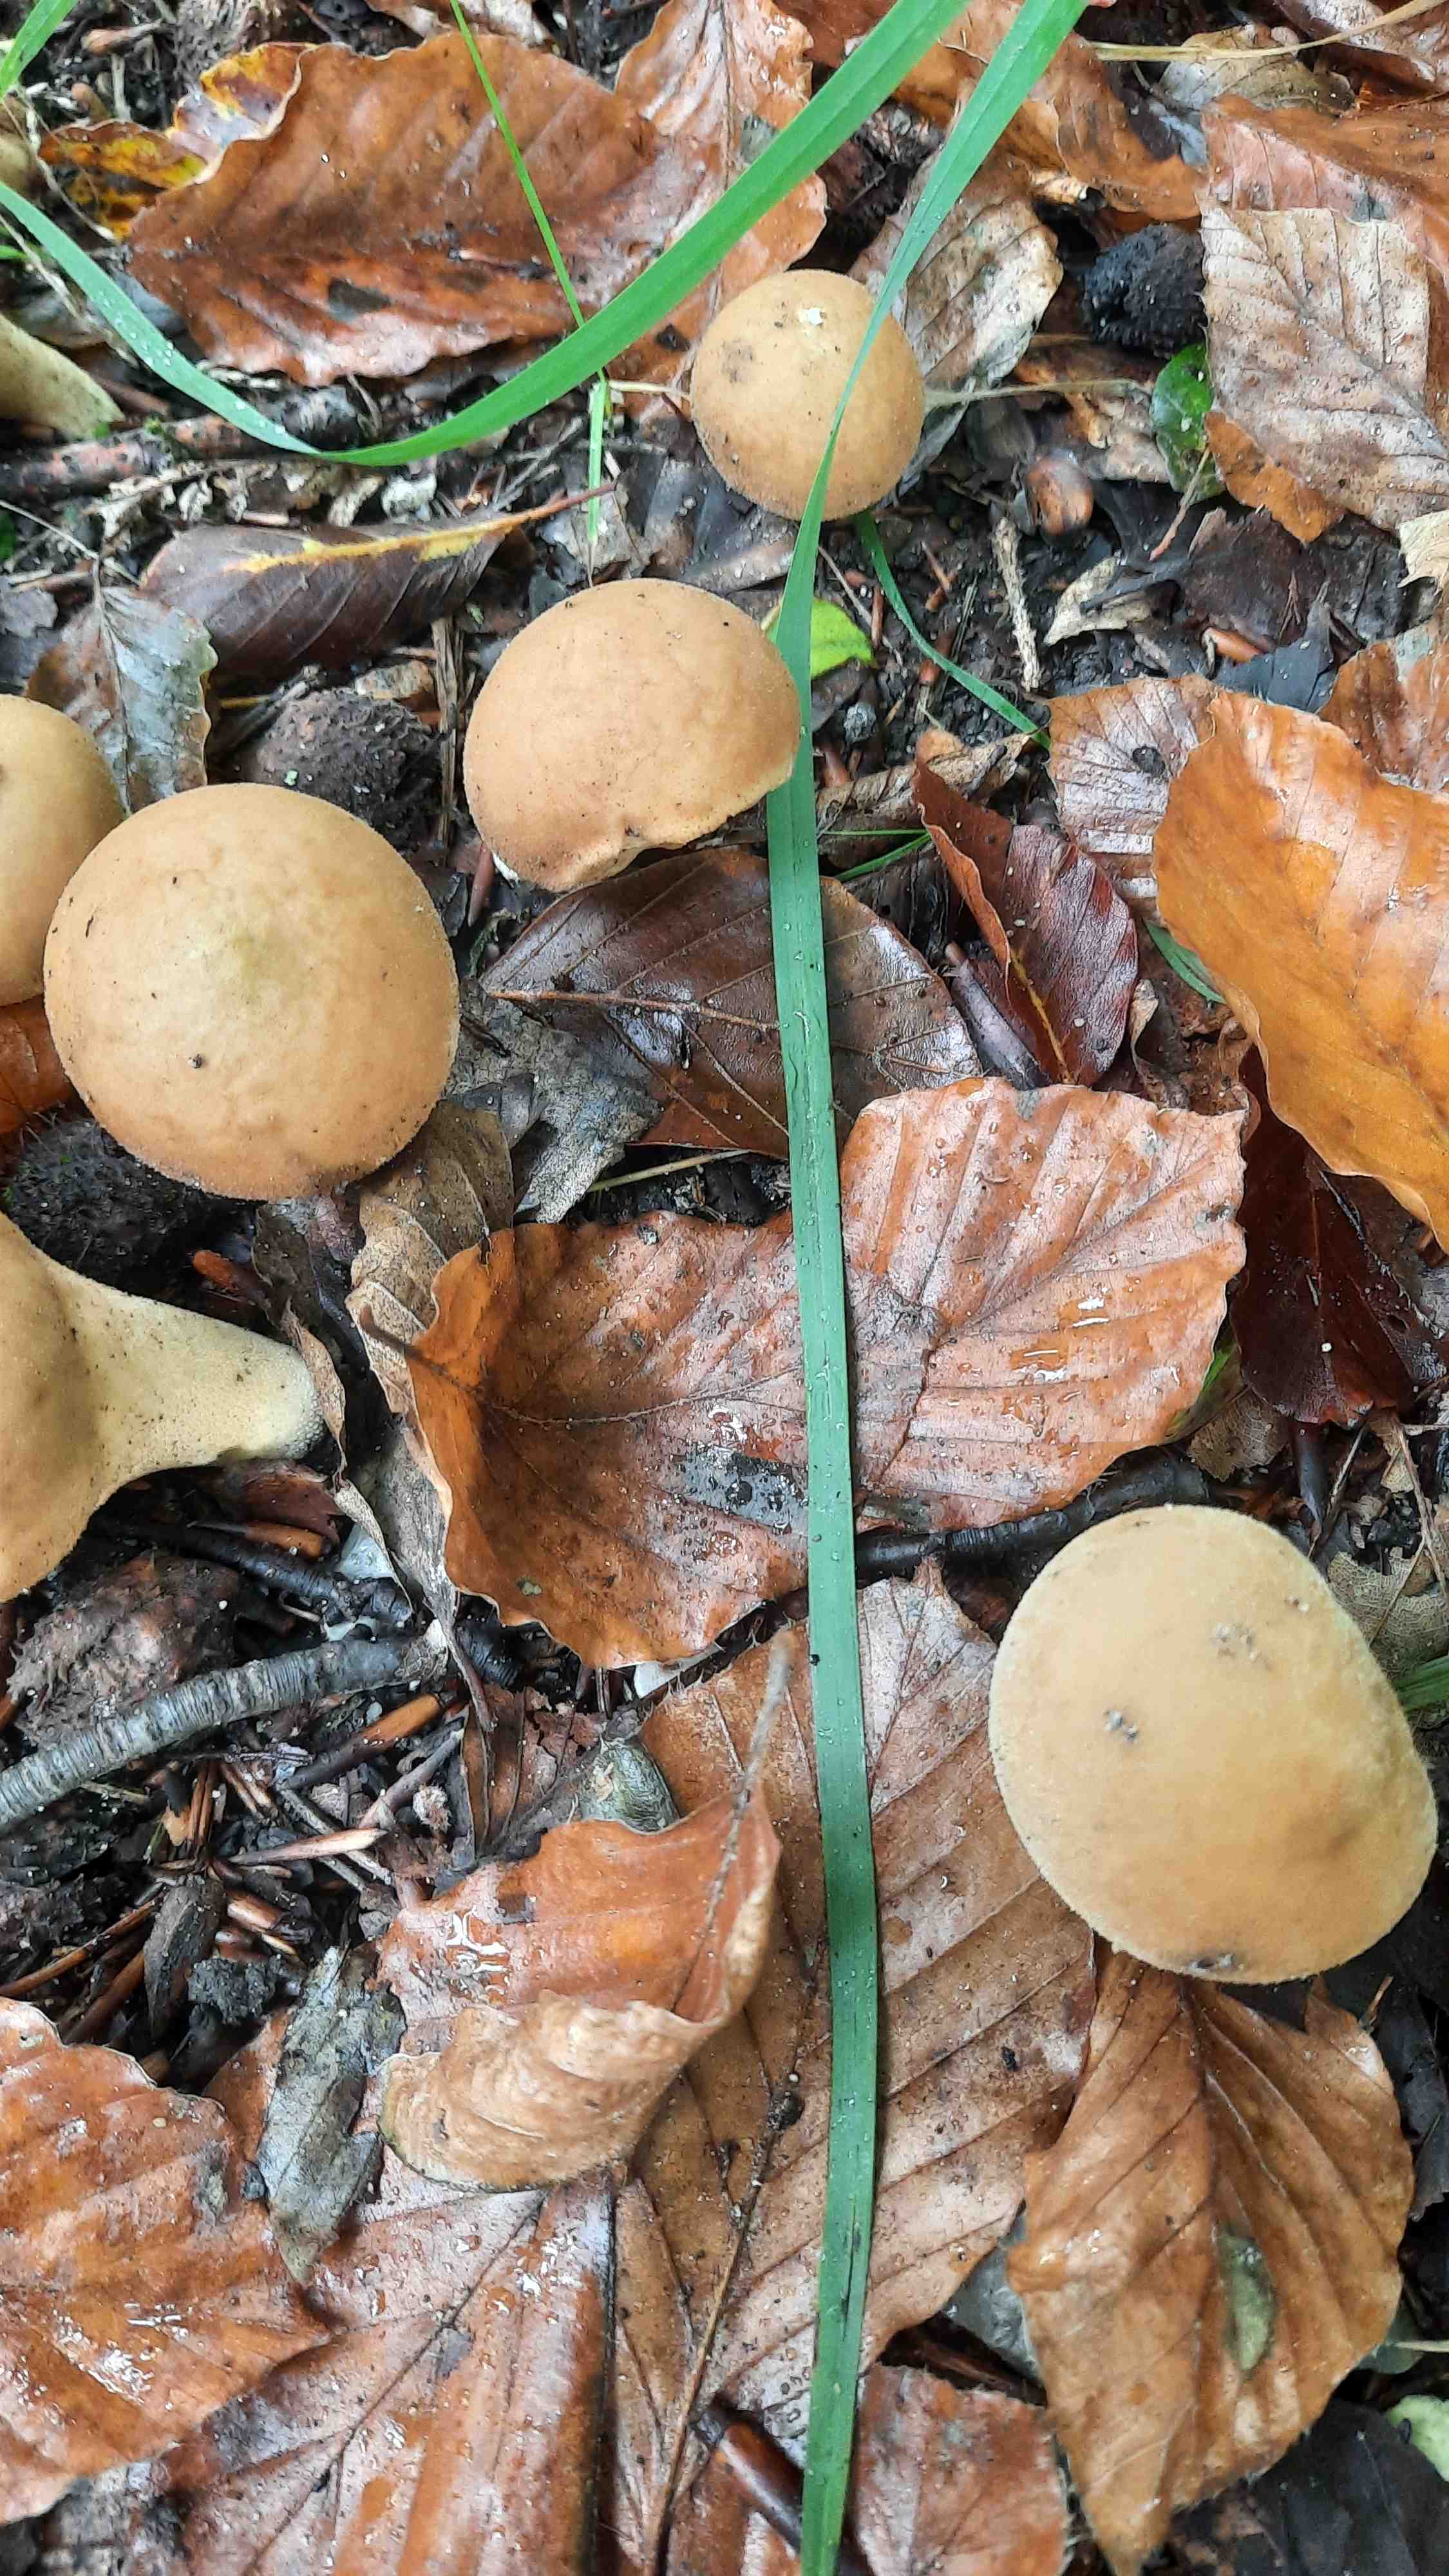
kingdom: Fungi
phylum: Basidiomycota
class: Agaricomycetes
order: Agaricales
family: Agaricaceae
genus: Lycoperdon
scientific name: Lycoperdon
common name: støvbold
